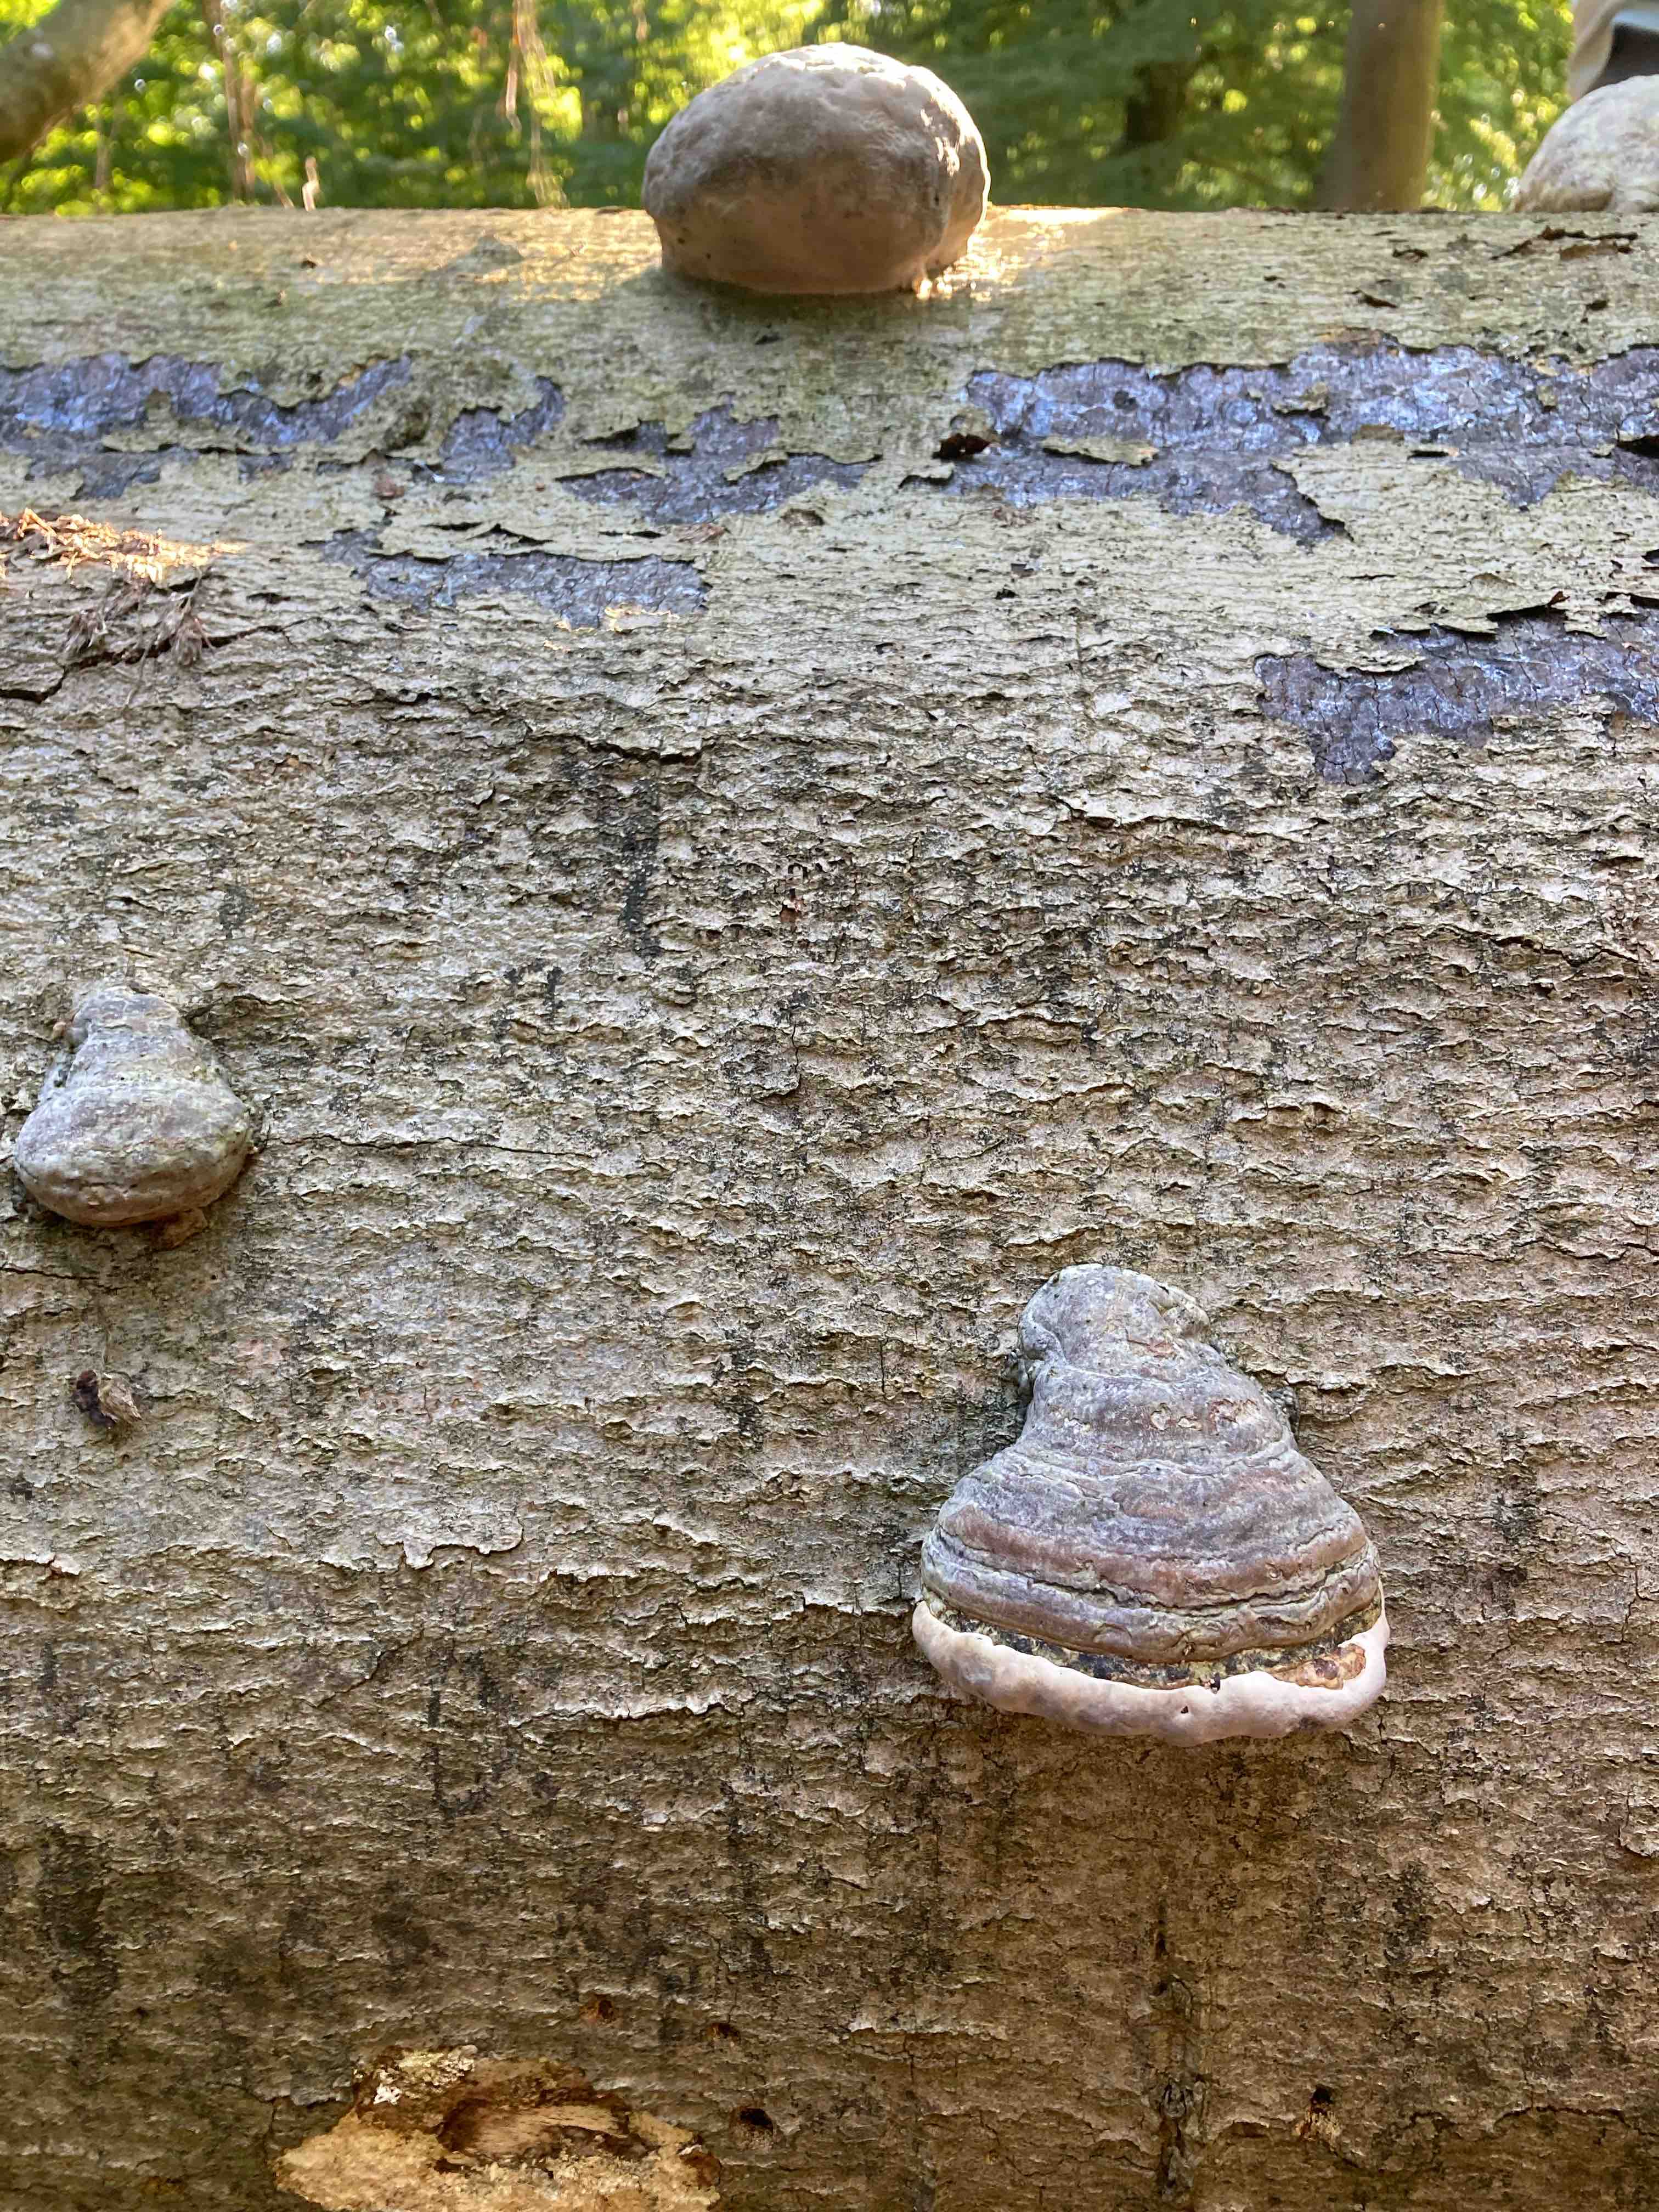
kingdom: Fungi
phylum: Basidiomycota
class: Agaricomycetes
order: Polyporales
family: Polyporaceae
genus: Fomes
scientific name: Fomes fomentarius
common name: tøndersvamp
